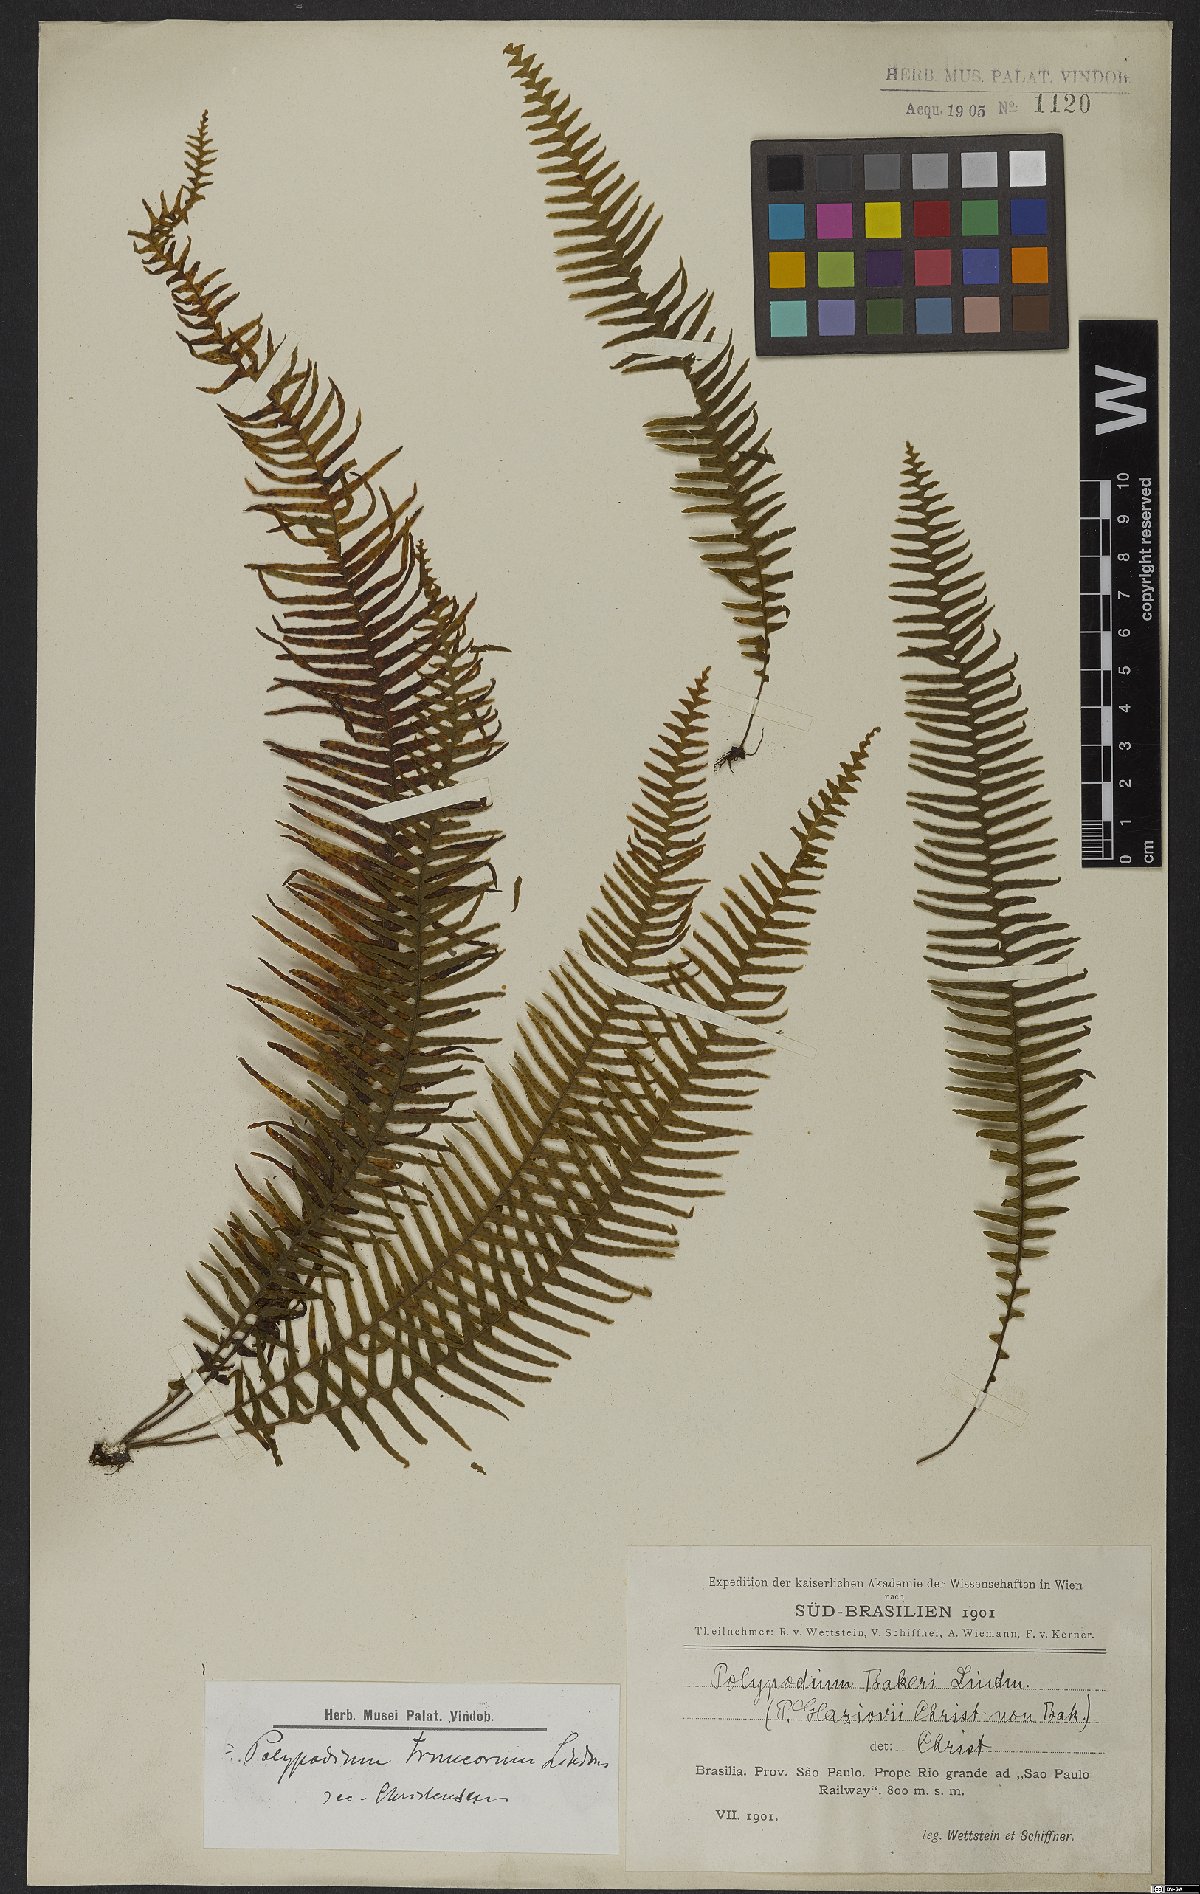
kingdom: Plantae
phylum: Tracheophyta
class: Polypodiopsida
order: Polypodiales
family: Polypodiaceae
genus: Pecluma
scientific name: Pecluma truncorum
